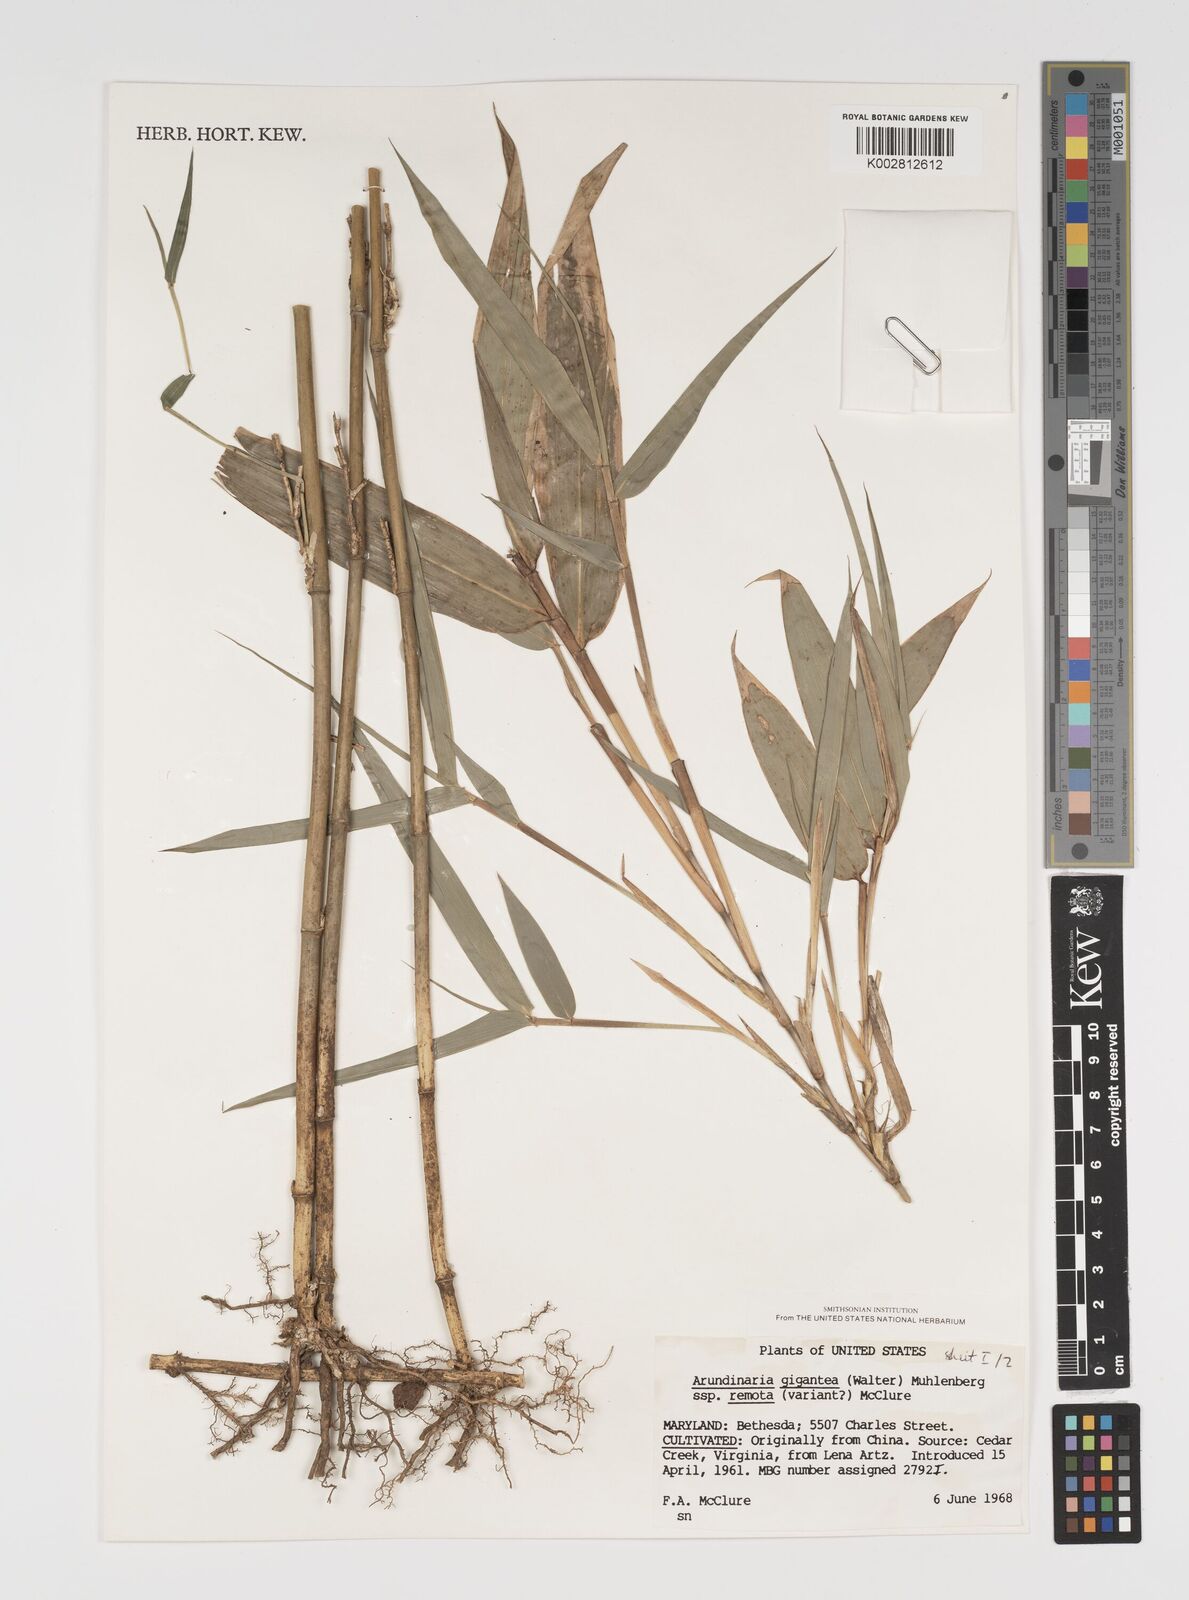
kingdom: Plantae
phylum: Tracheophyta
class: Liliopsida
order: Poales
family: Poaceae
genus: Arundinaria
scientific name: Arundinaria
